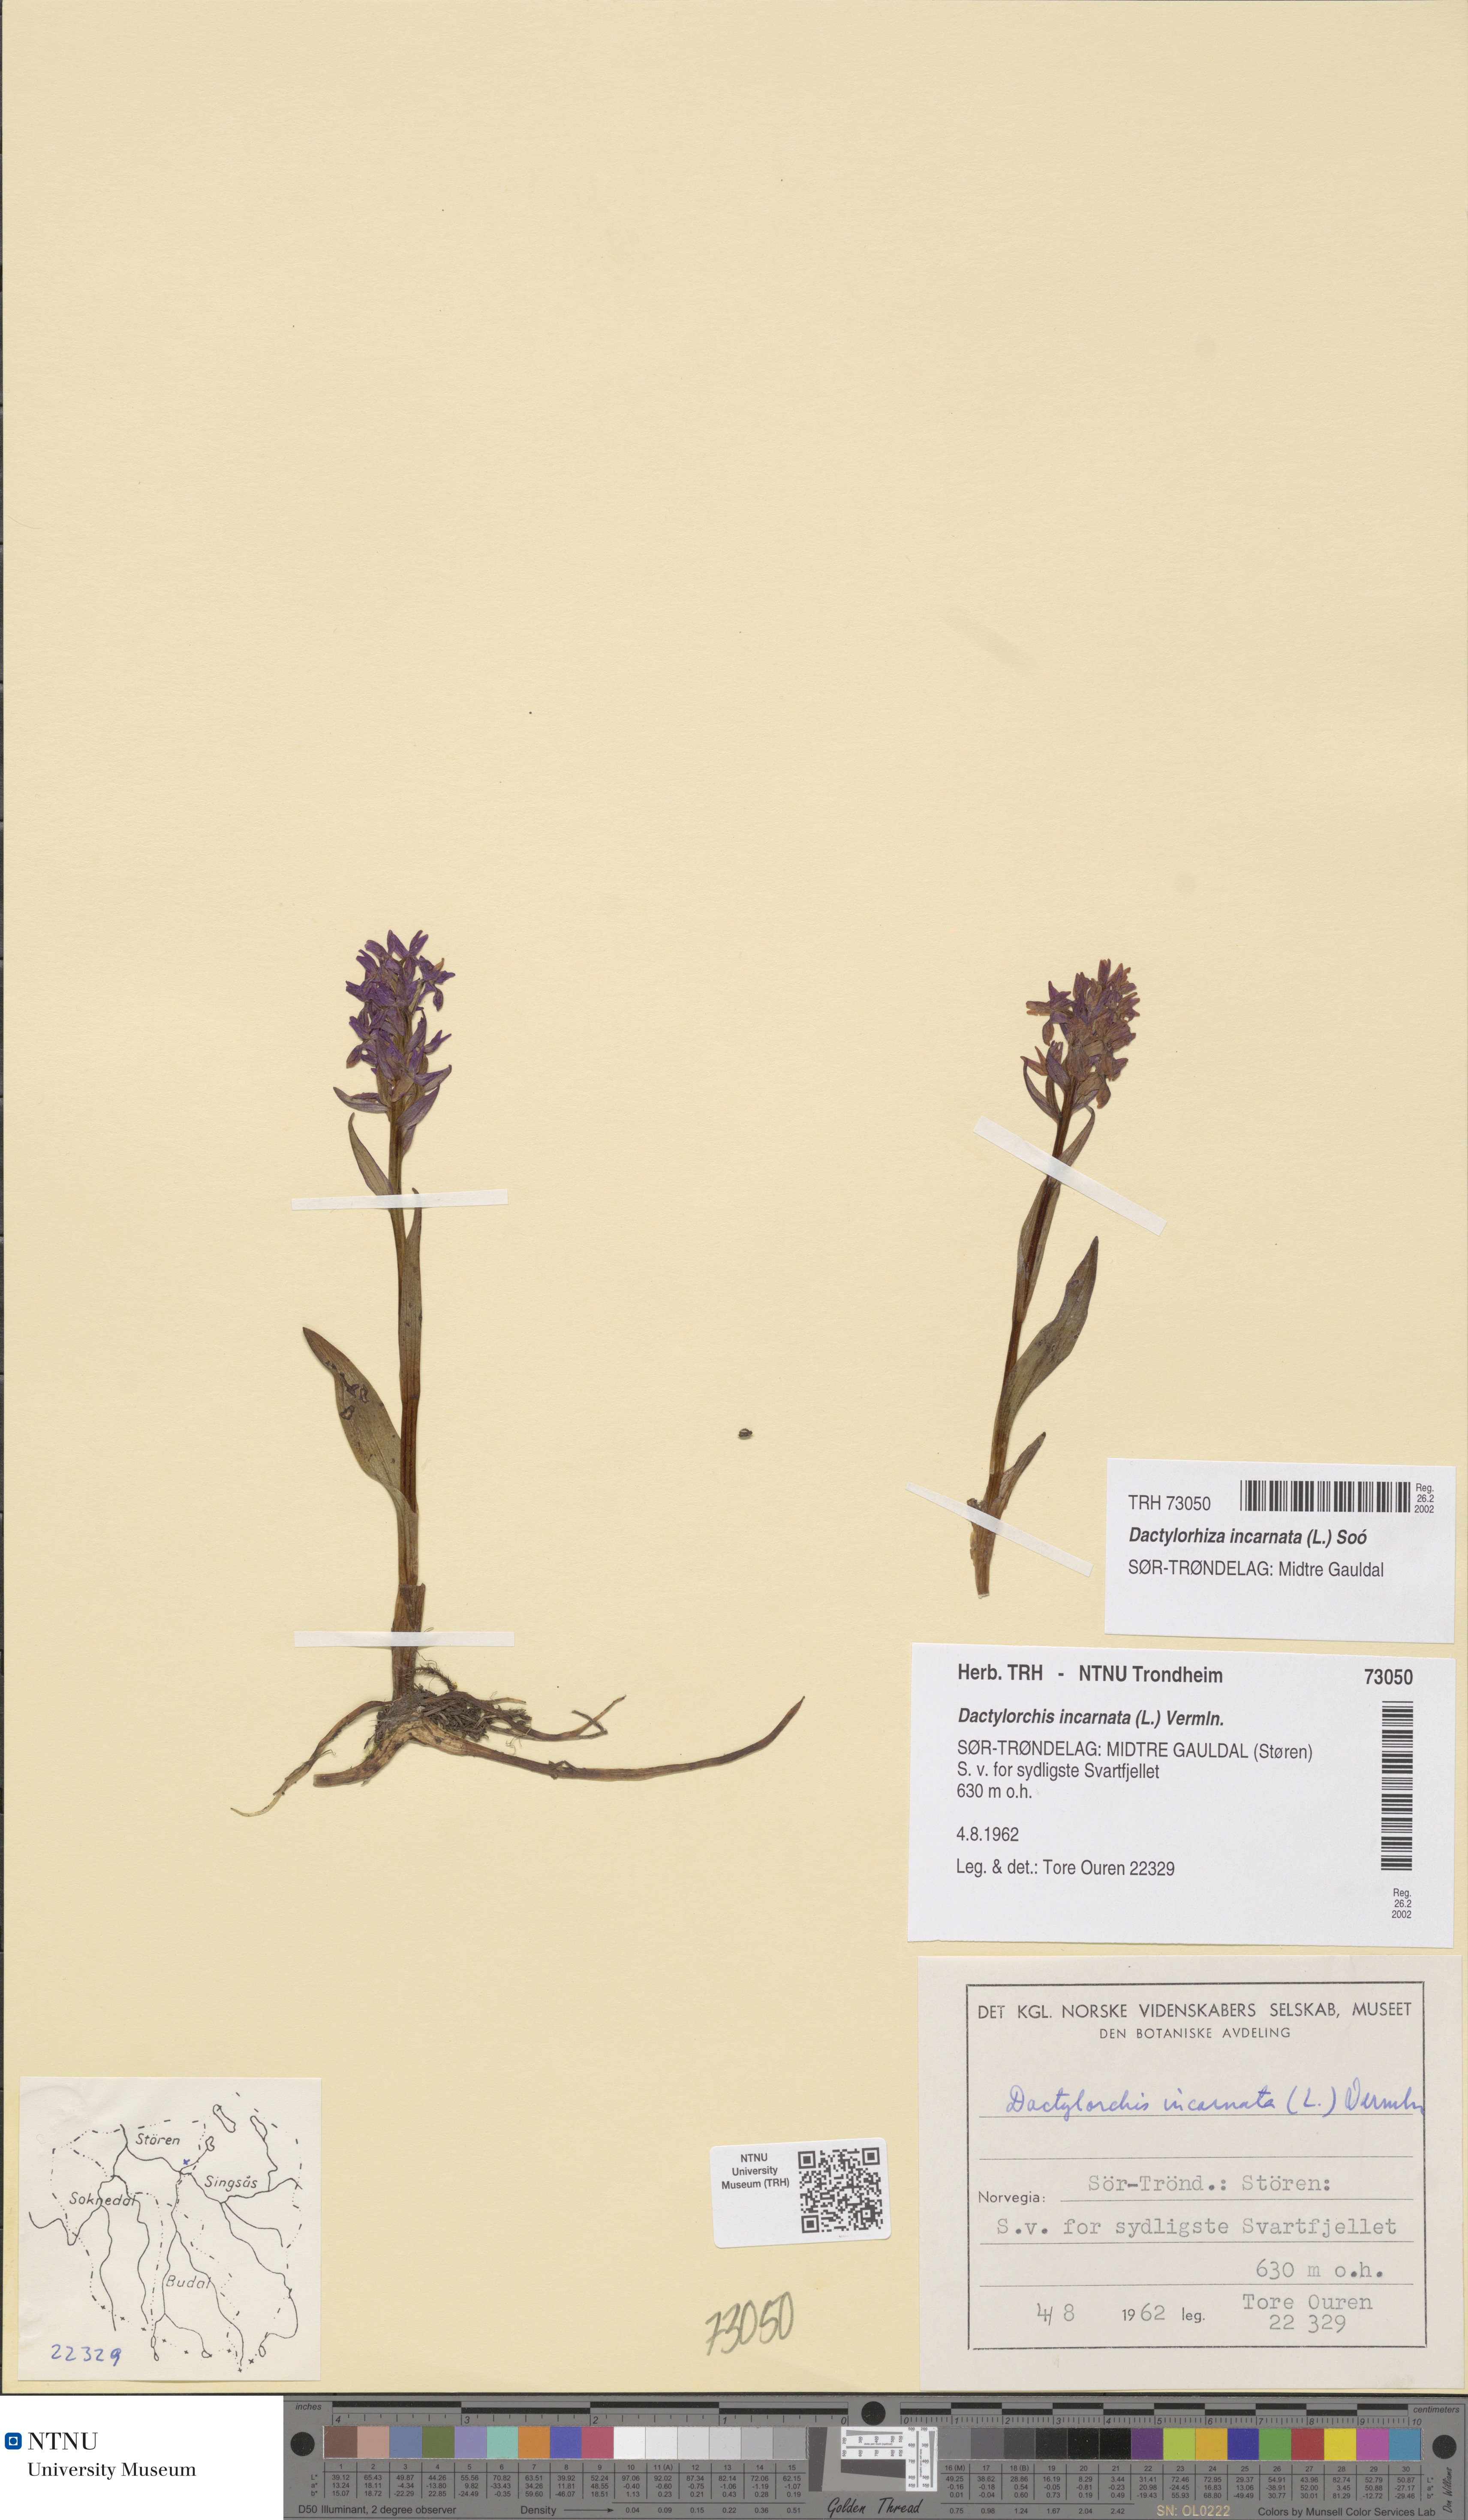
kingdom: Plantae
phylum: Tracheophyta
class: Liliopsida
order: Asparagales
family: Orchidaceae
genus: Dactylorhiza
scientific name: Dactylorhiza incarnata
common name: Early marsh-orchid
